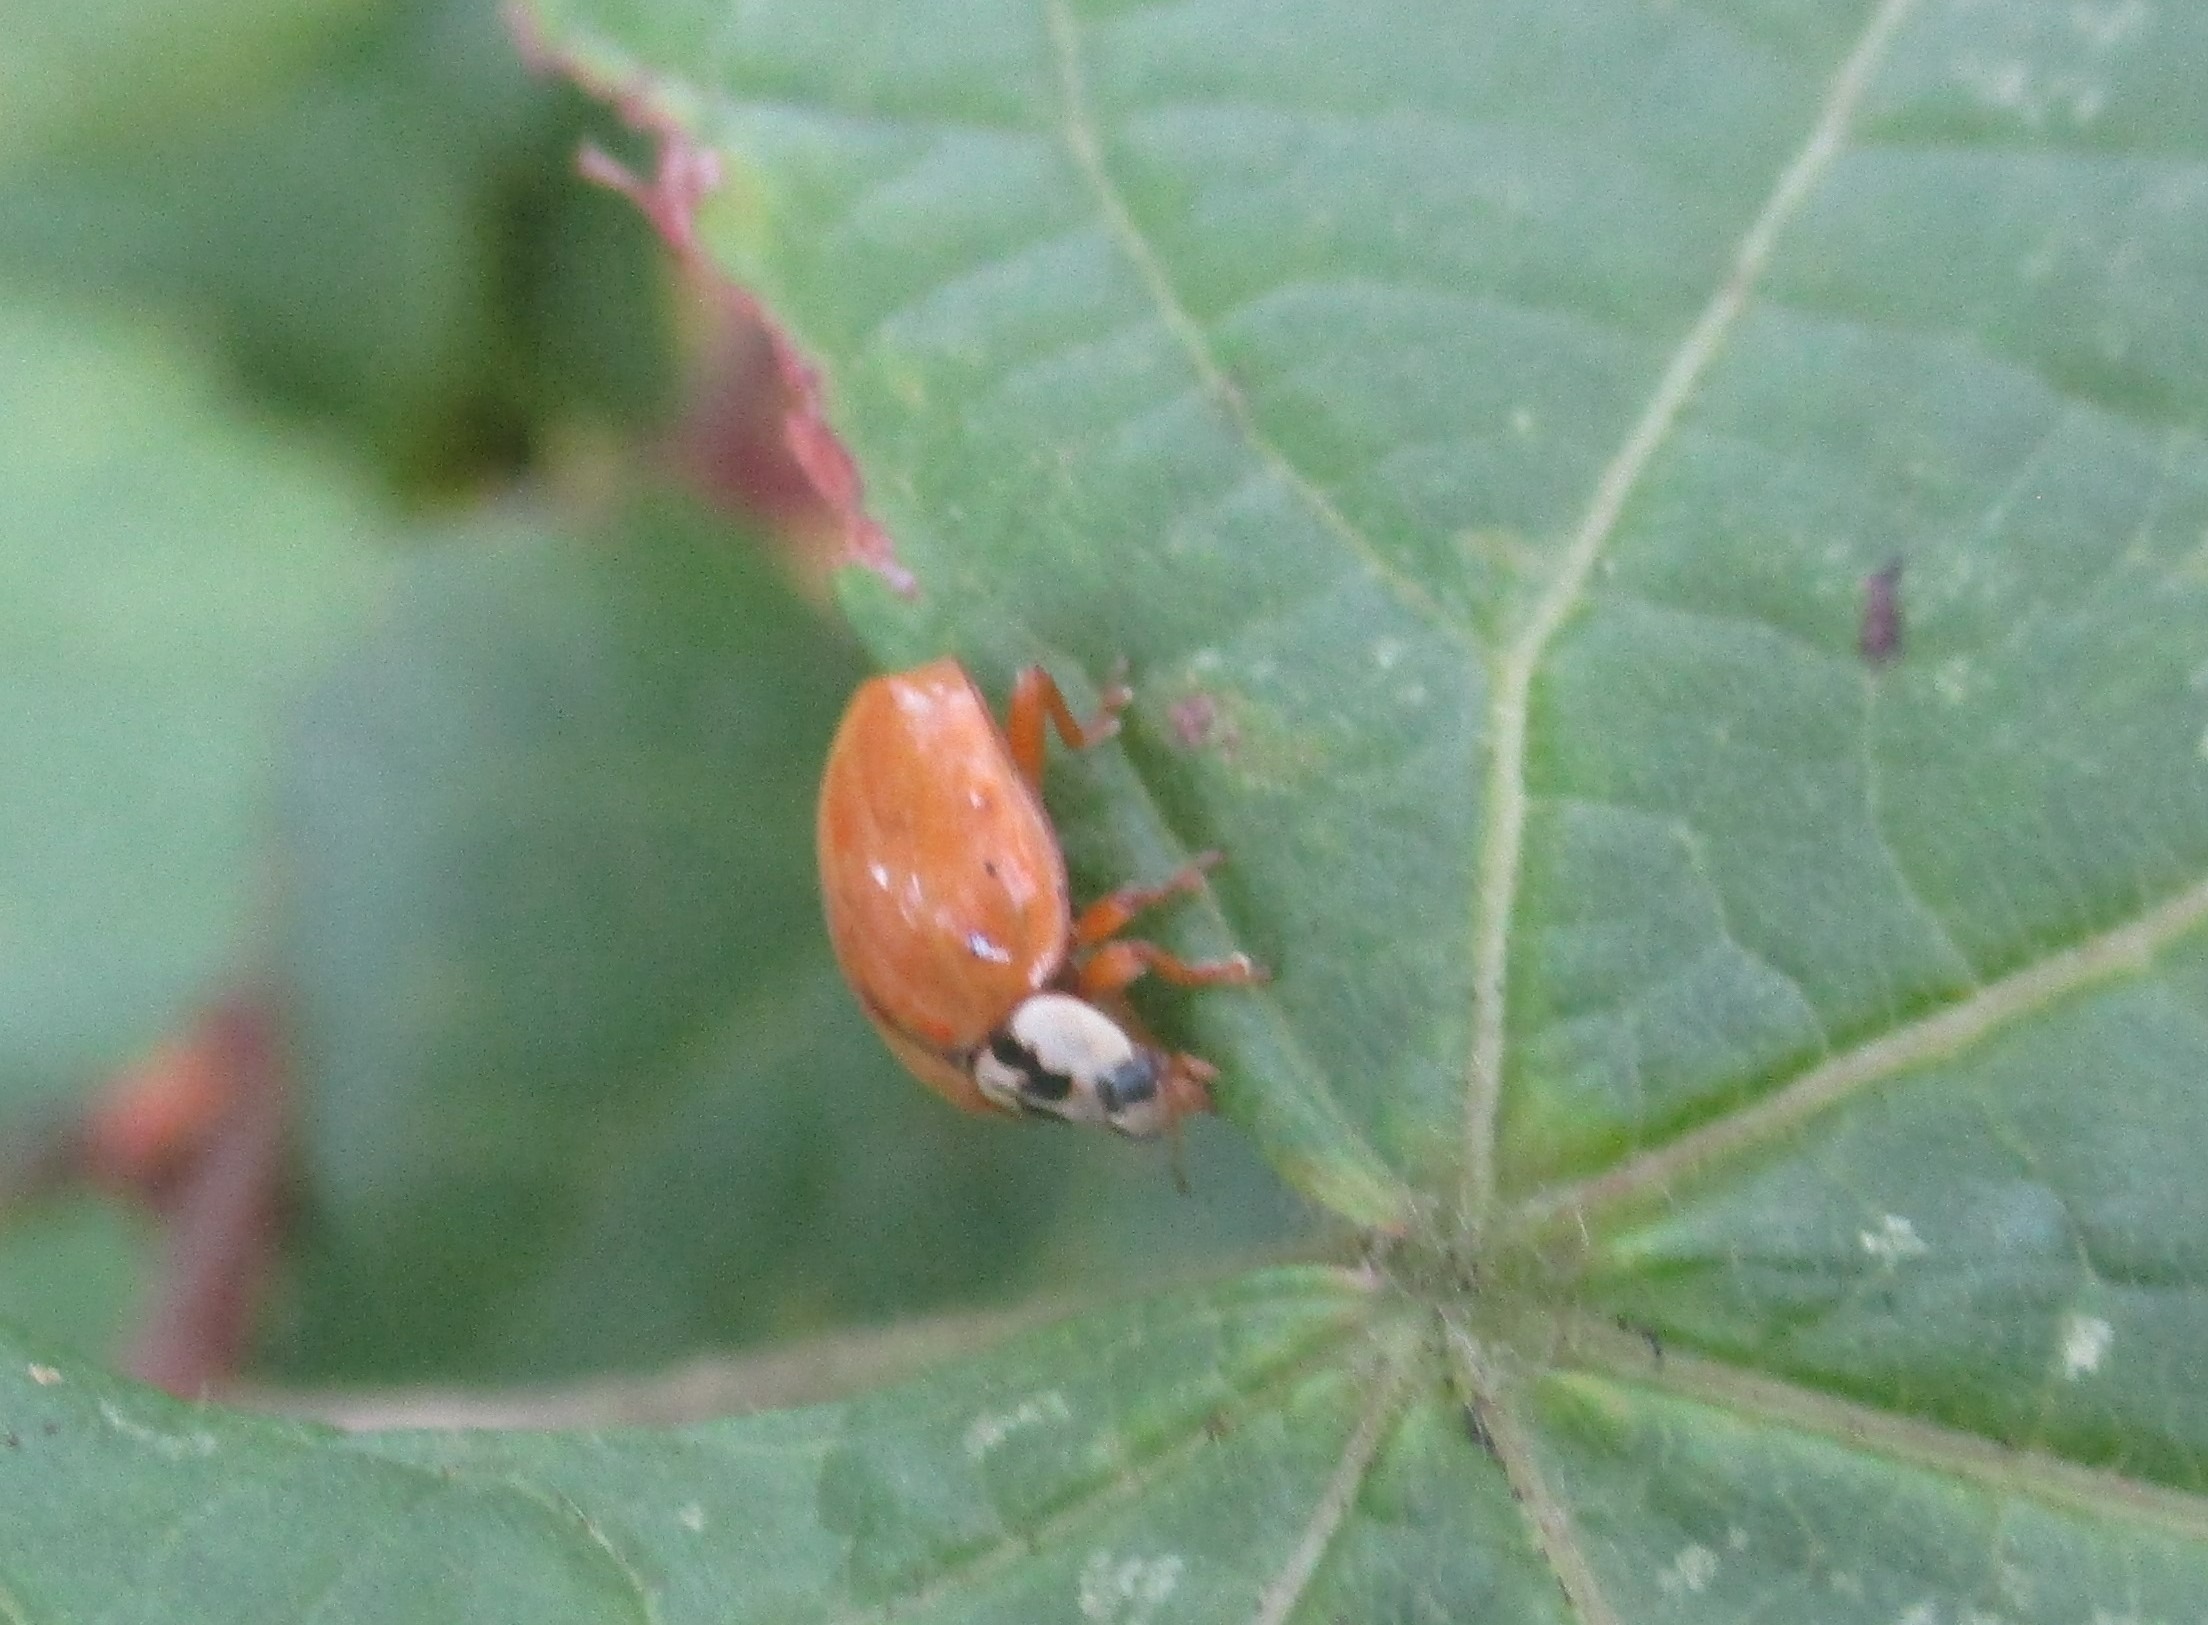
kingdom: Animalia
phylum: Arthropoda
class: Insecta
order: Coleoptera
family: Coccinellidae
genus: Adalia
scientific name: Adalia decempunctata
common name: Tiplettet mariehøne
